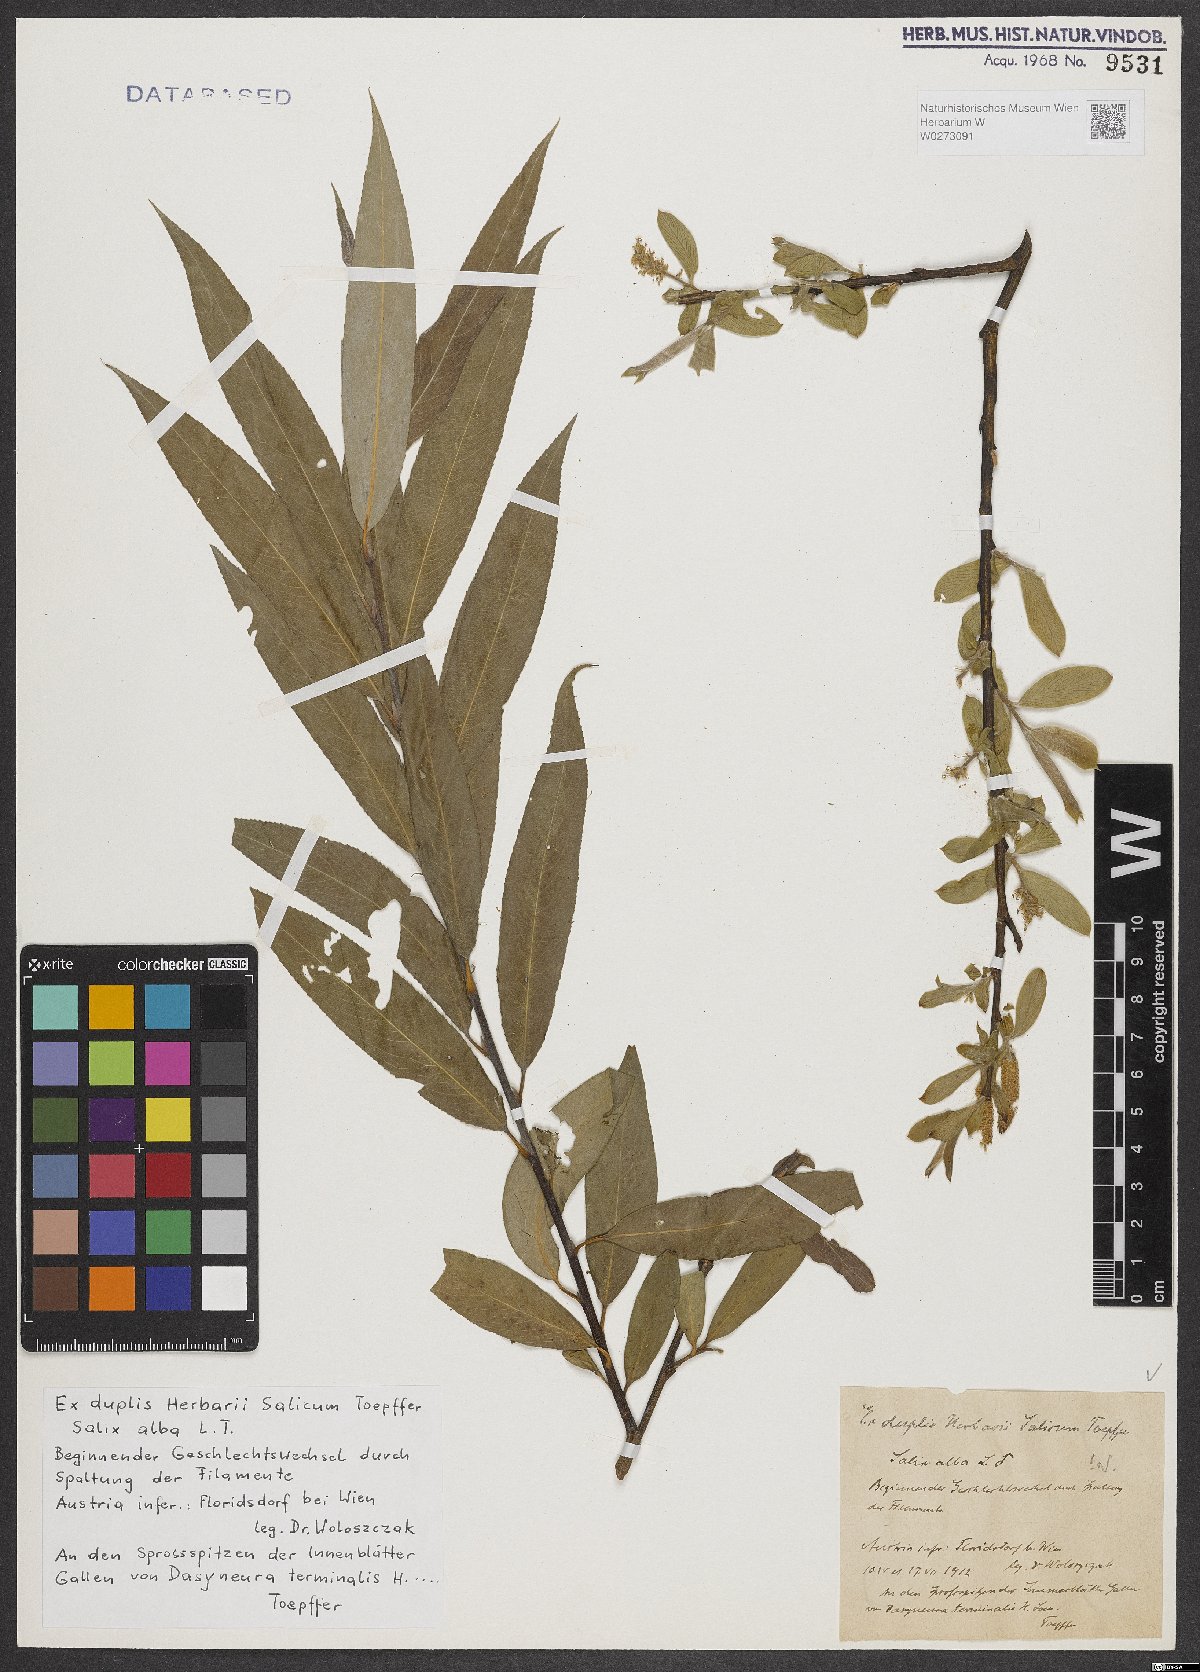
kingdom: Plantae
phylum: Tracheophyta
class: Magnoliopsida
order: Malpighiales
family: Salicaceae
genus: Salix
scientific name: Salix alba
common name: White willow
